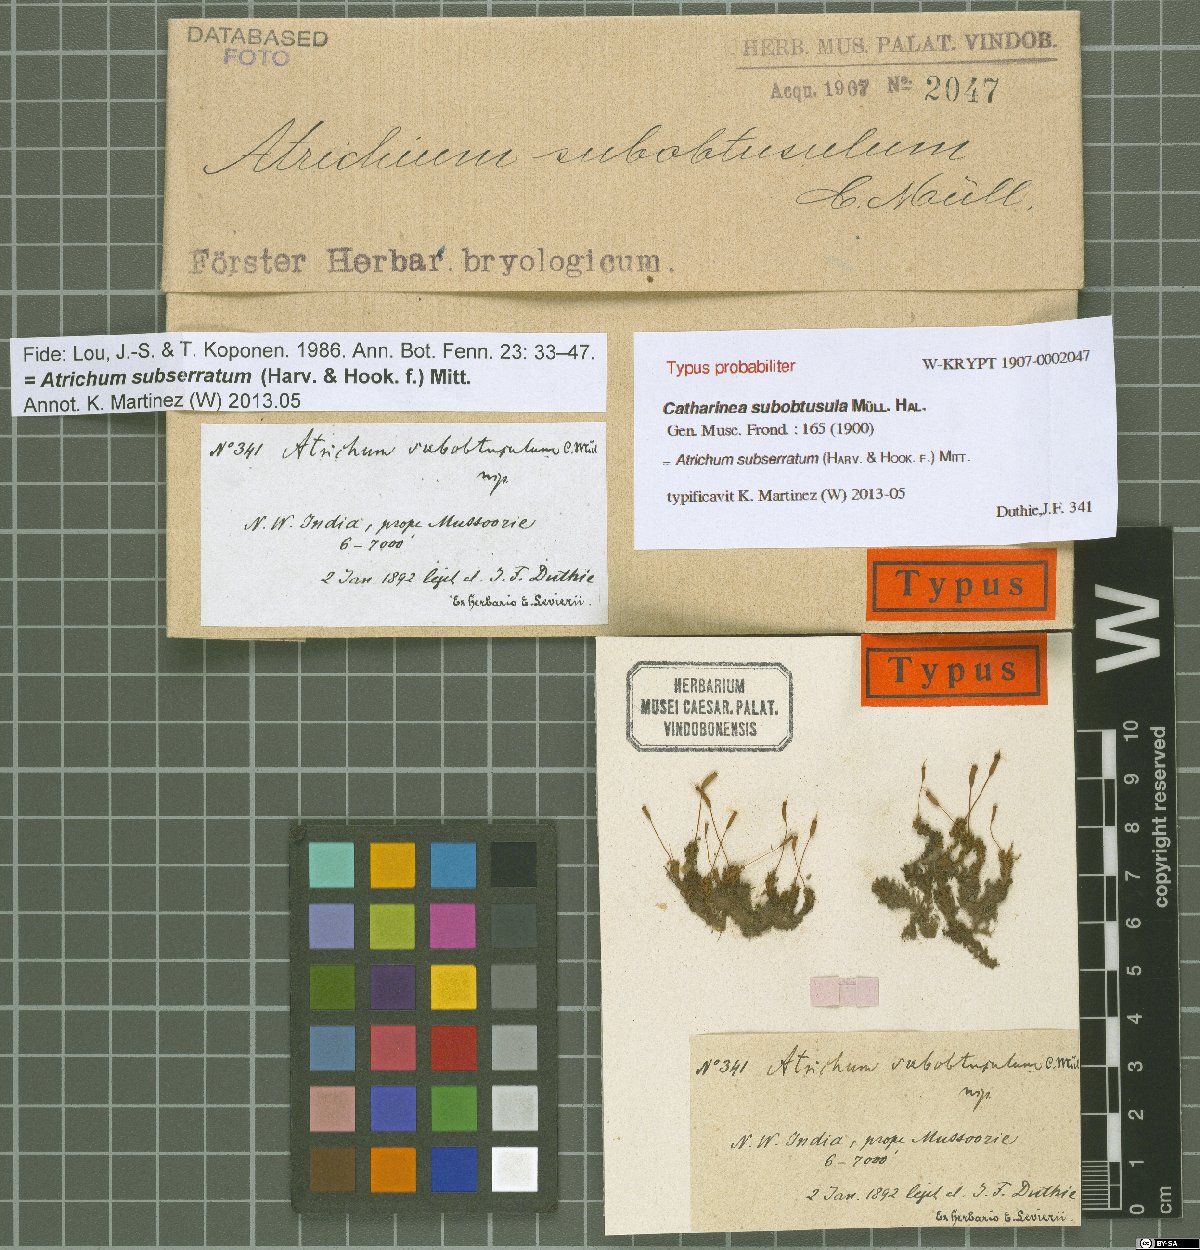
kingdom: Plantae
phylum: Bryophyta
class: Polytrichopsida
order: Polytrichales
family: Polytrichaceae
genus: Atrichum
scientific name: Atrichum
